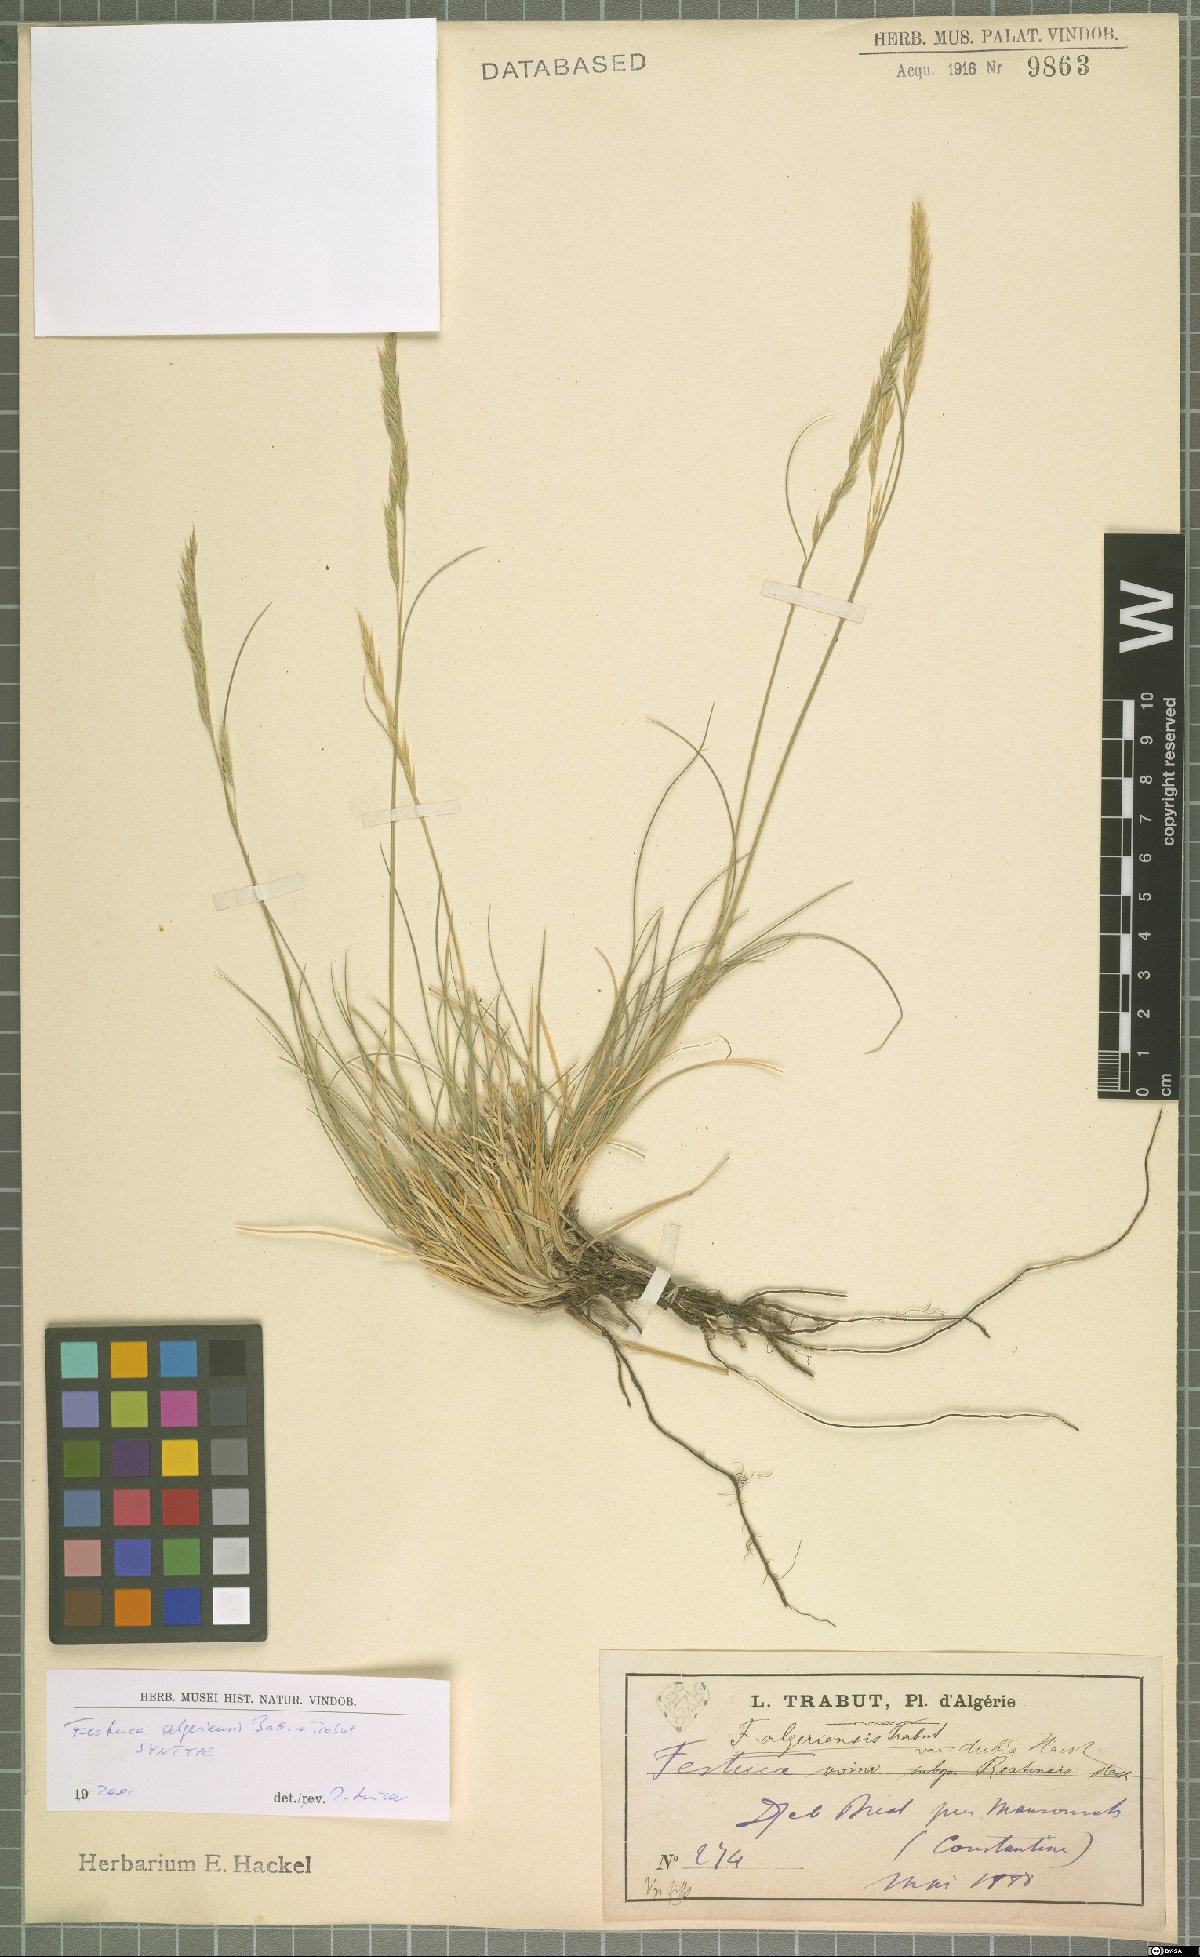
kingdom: Plantae
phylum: Tracheophyta
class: Liliopsida
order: Poales
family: Poaceae
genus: Festuca
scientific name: Festuca algeriensis
